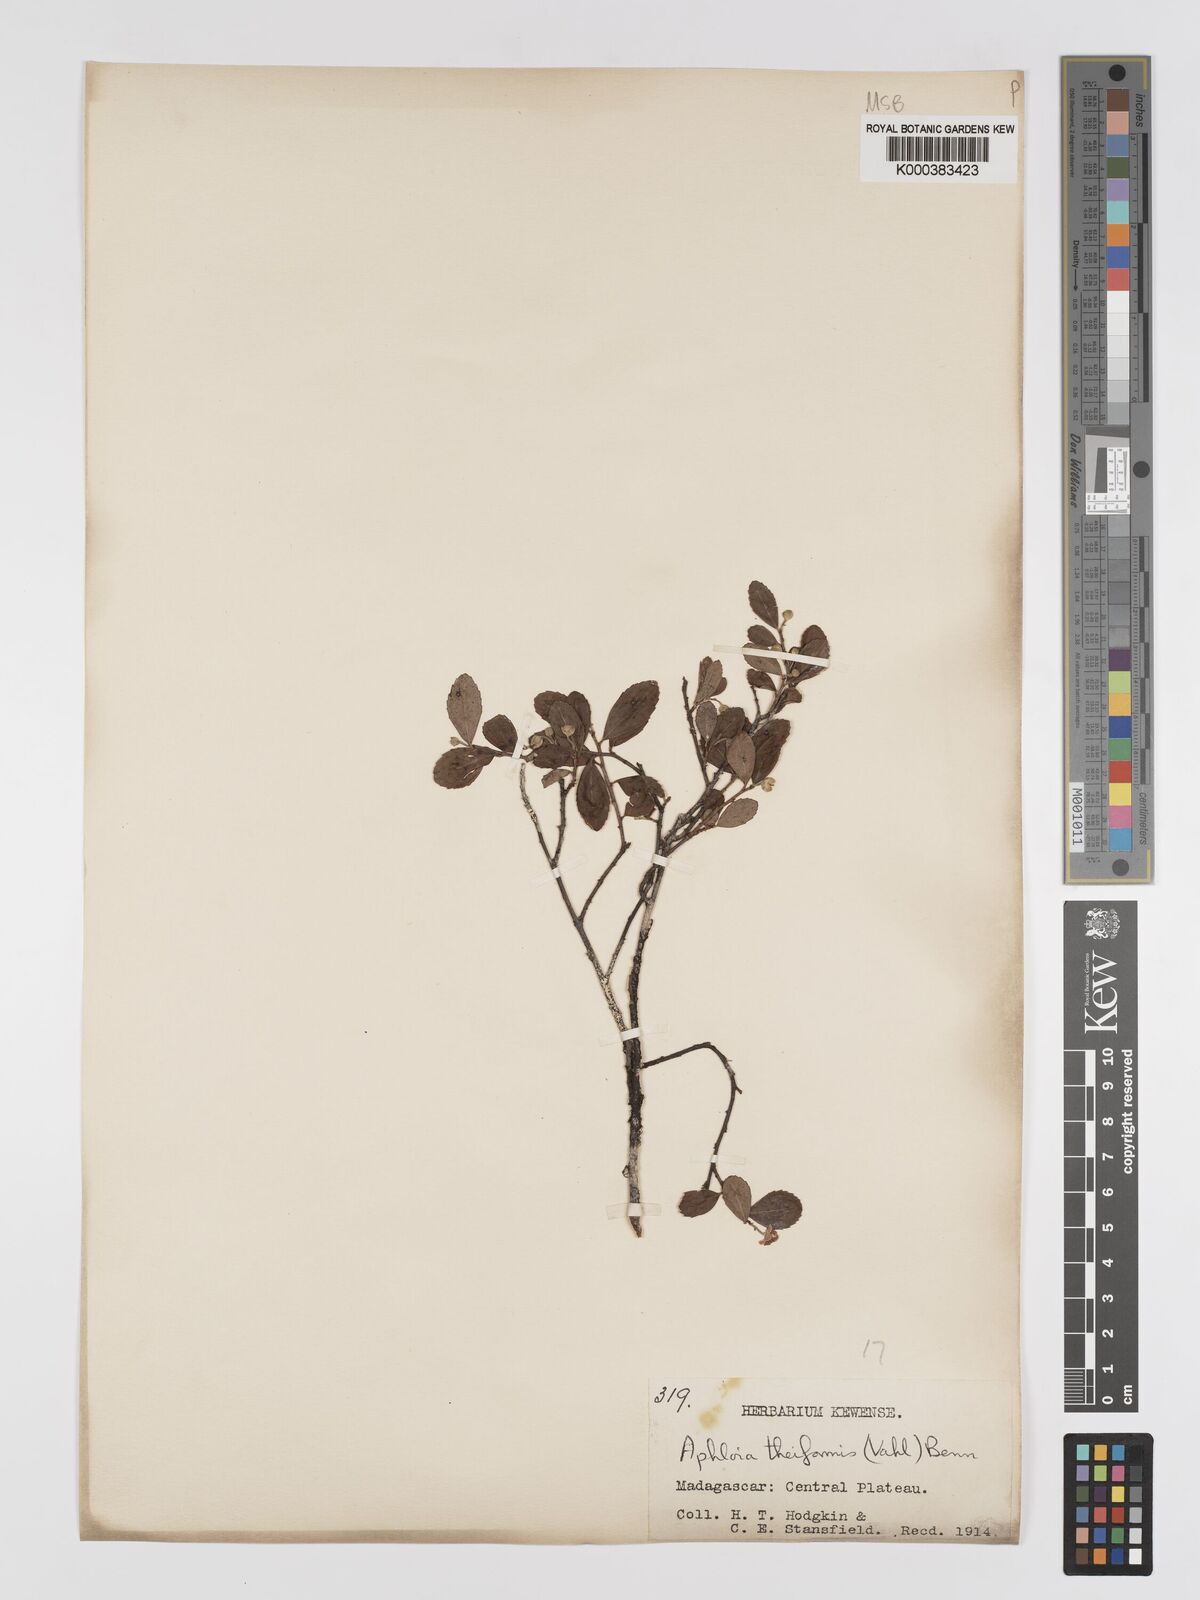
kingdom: Plantae
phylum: Tracheophyta
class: Magnoliopsida
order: Crossosomatales
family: Aphloiaceae
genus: Aphloia
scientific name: Aphloia theiformis
